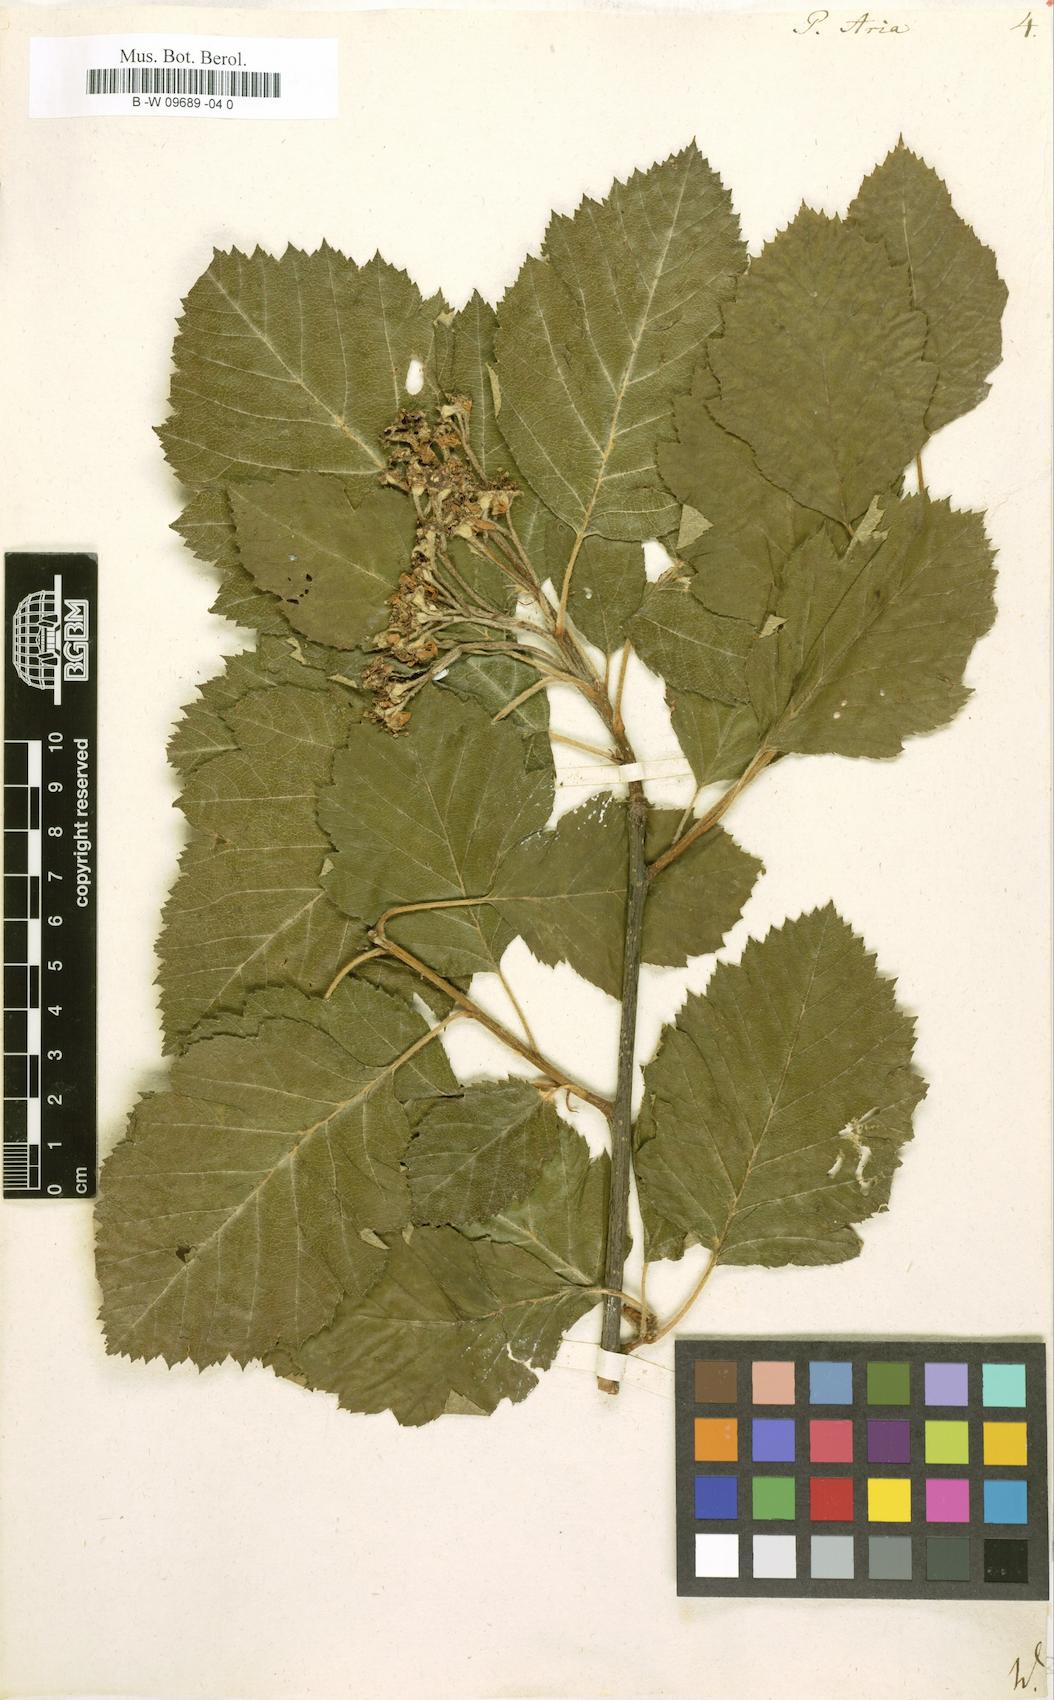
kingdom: Plantae
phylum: Tracheophyta
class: Magnoliopsida
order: Rosales
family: Rosaceae
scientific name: Rosaceae
